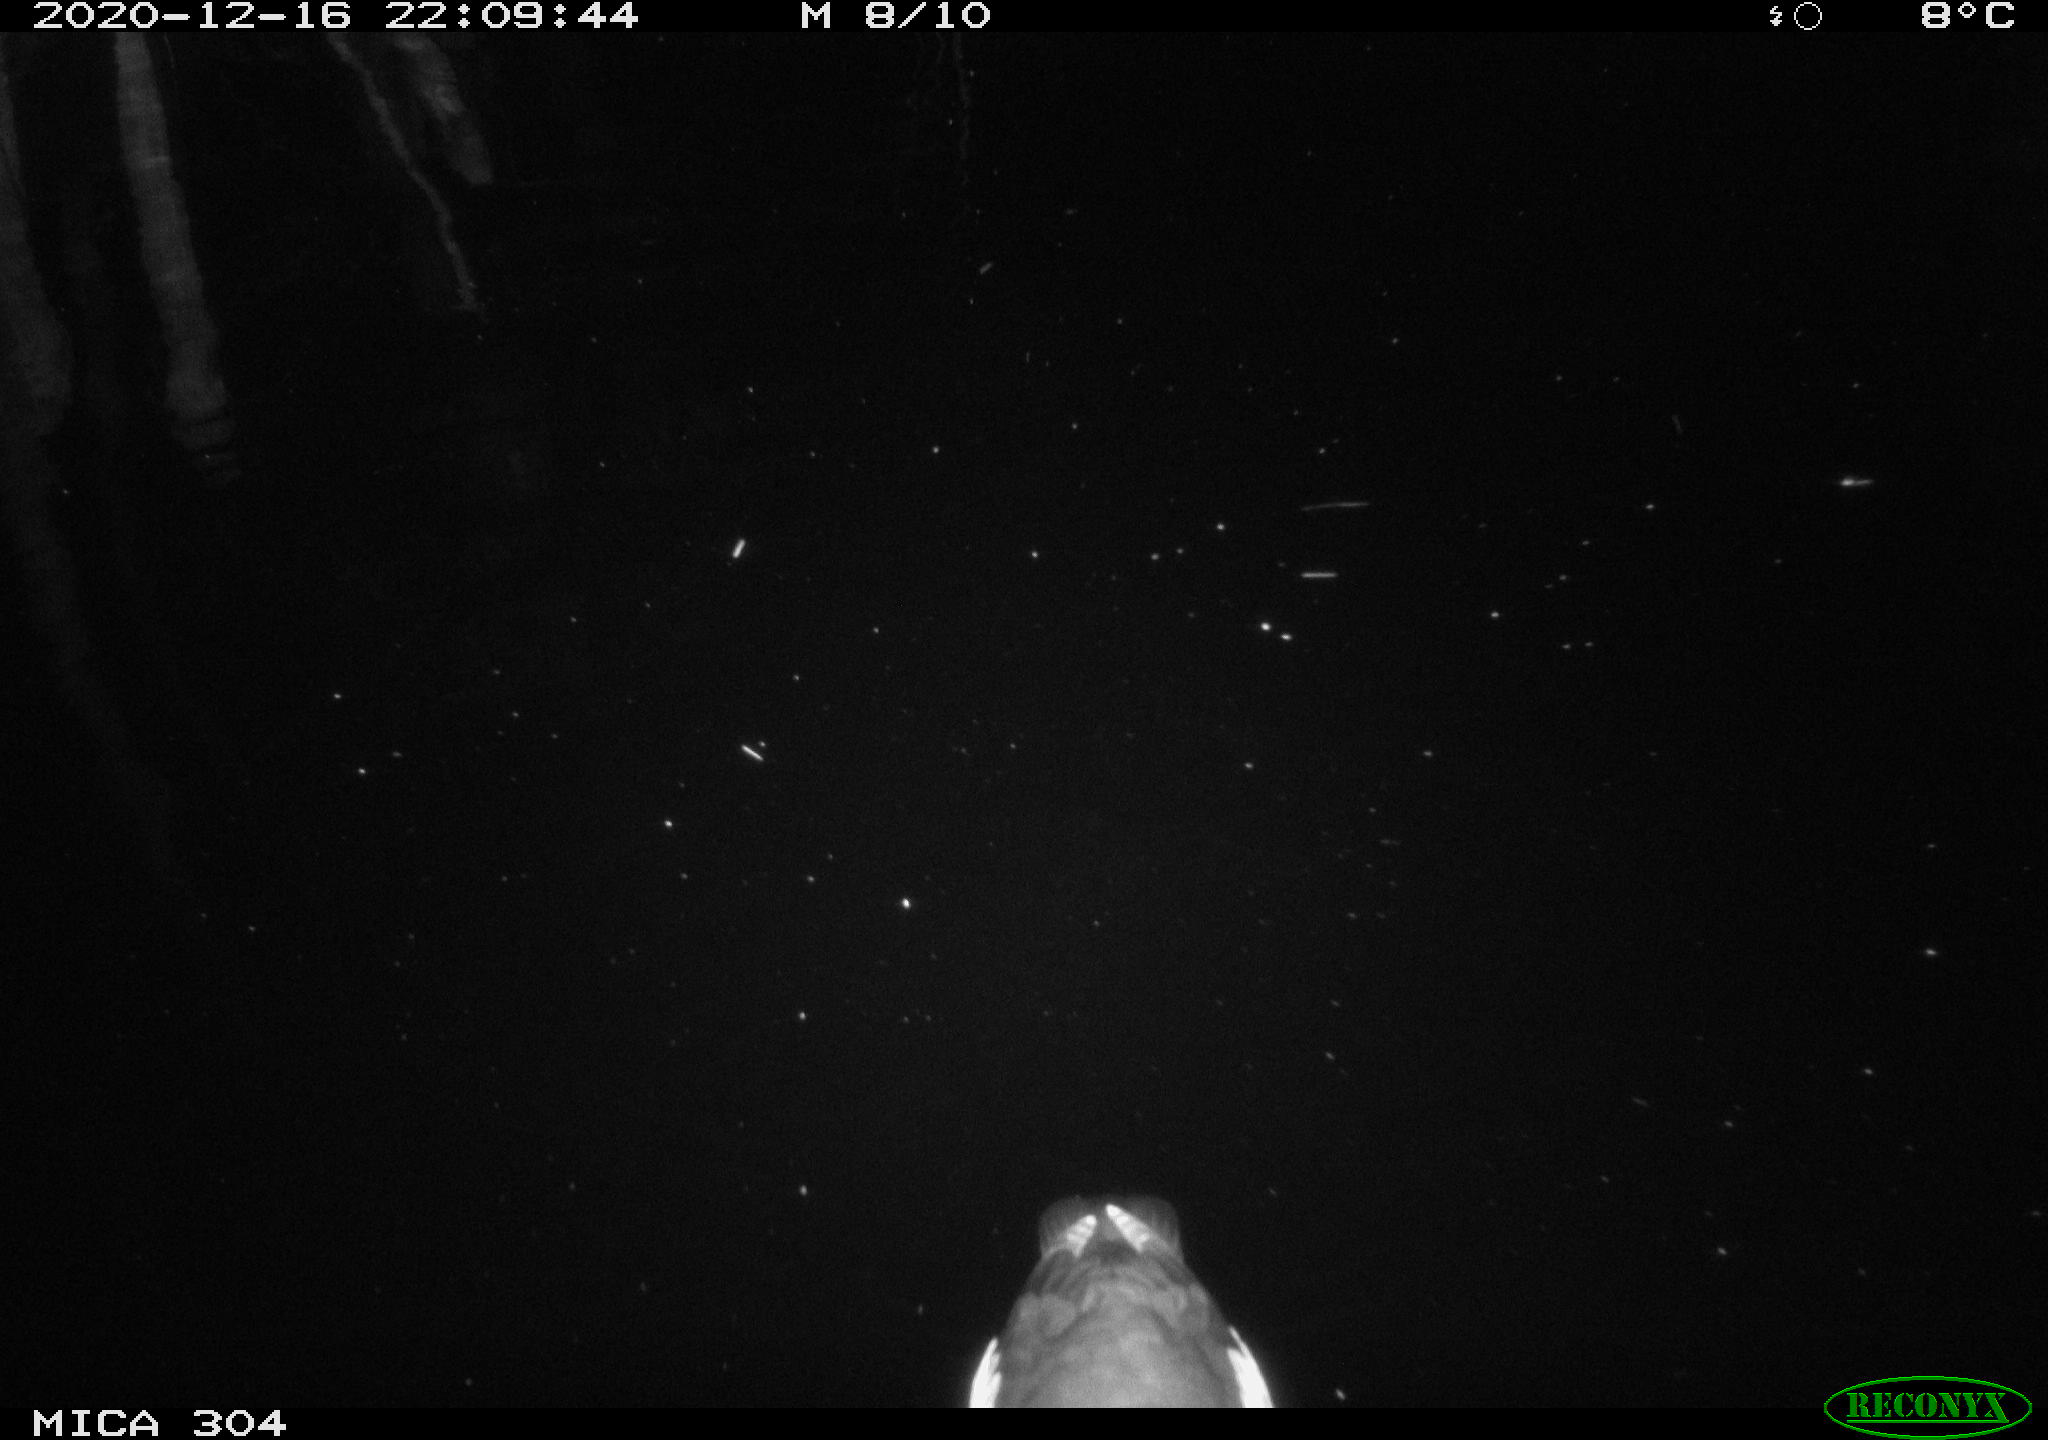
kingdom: Animalia
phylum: Chordata
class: Aves
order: Gruiformes
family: Rallidae
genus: Gallinula
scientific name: Gallinula chloropus
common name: Common moorhen
